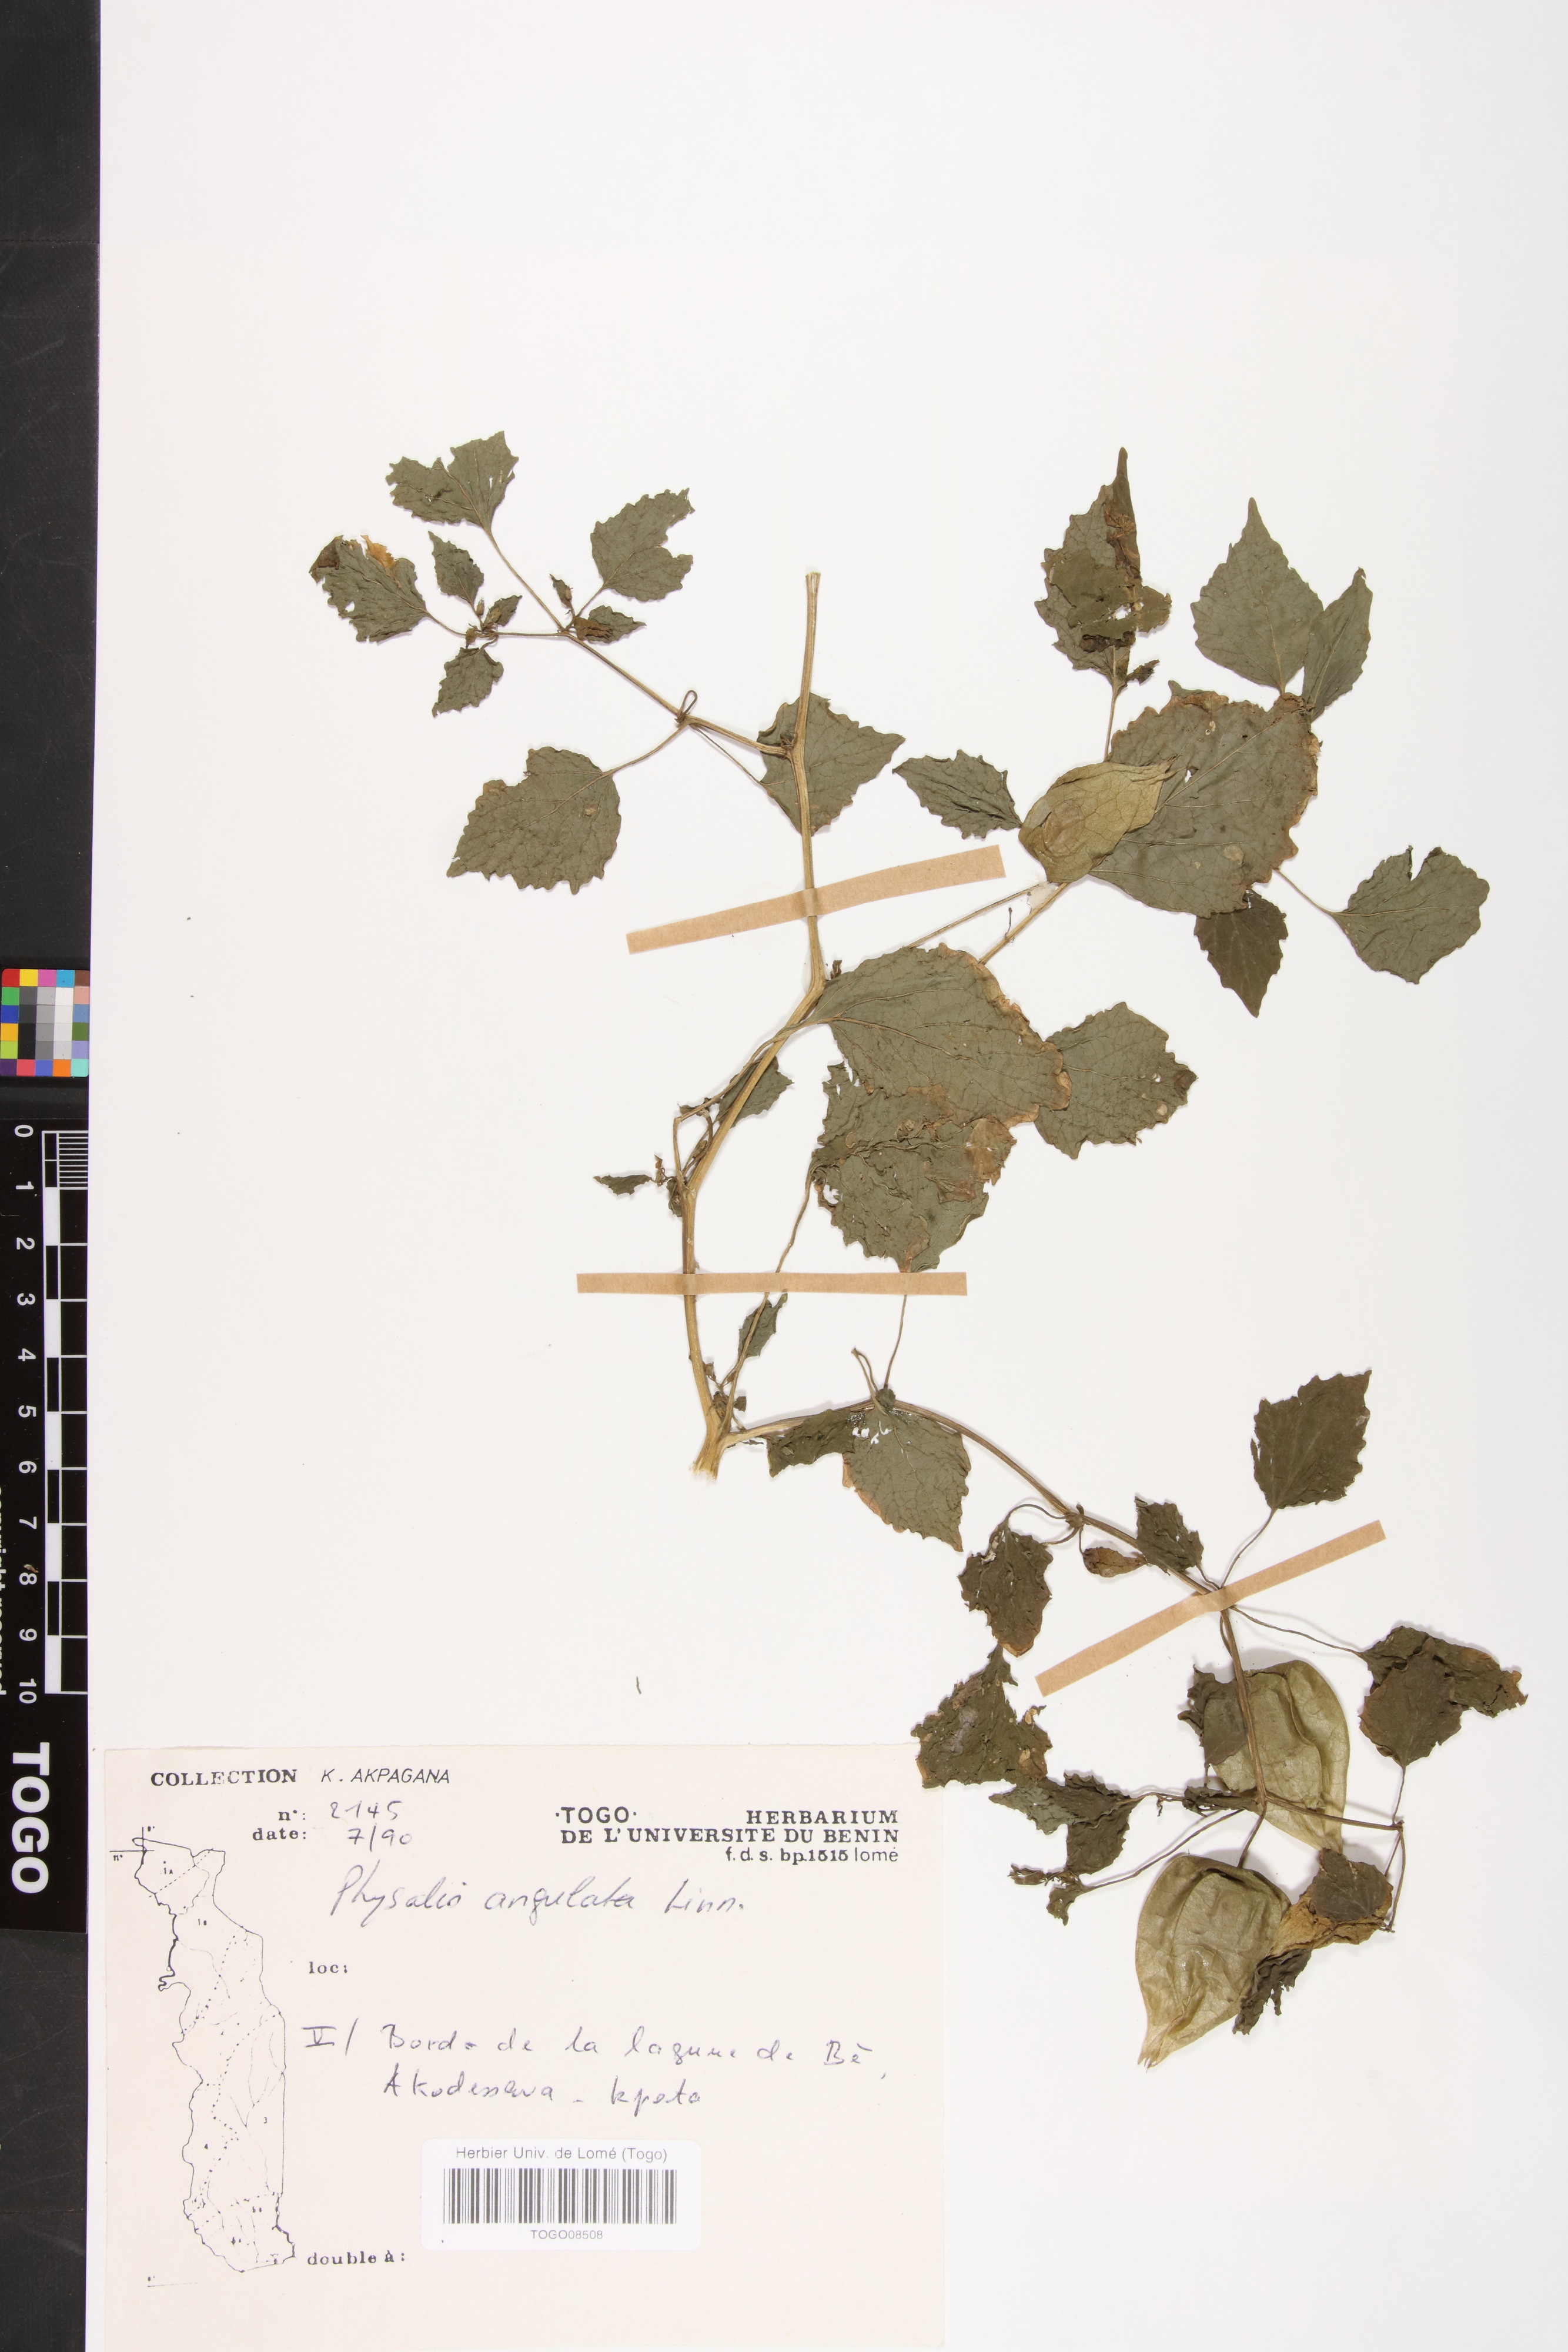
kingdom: Plantae
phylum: Tracheophyta
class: Magnoliopsida
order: Solanales
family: Solanaceae
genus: Physalis
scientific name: Physalis angulata
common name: Angular winter-cherry
